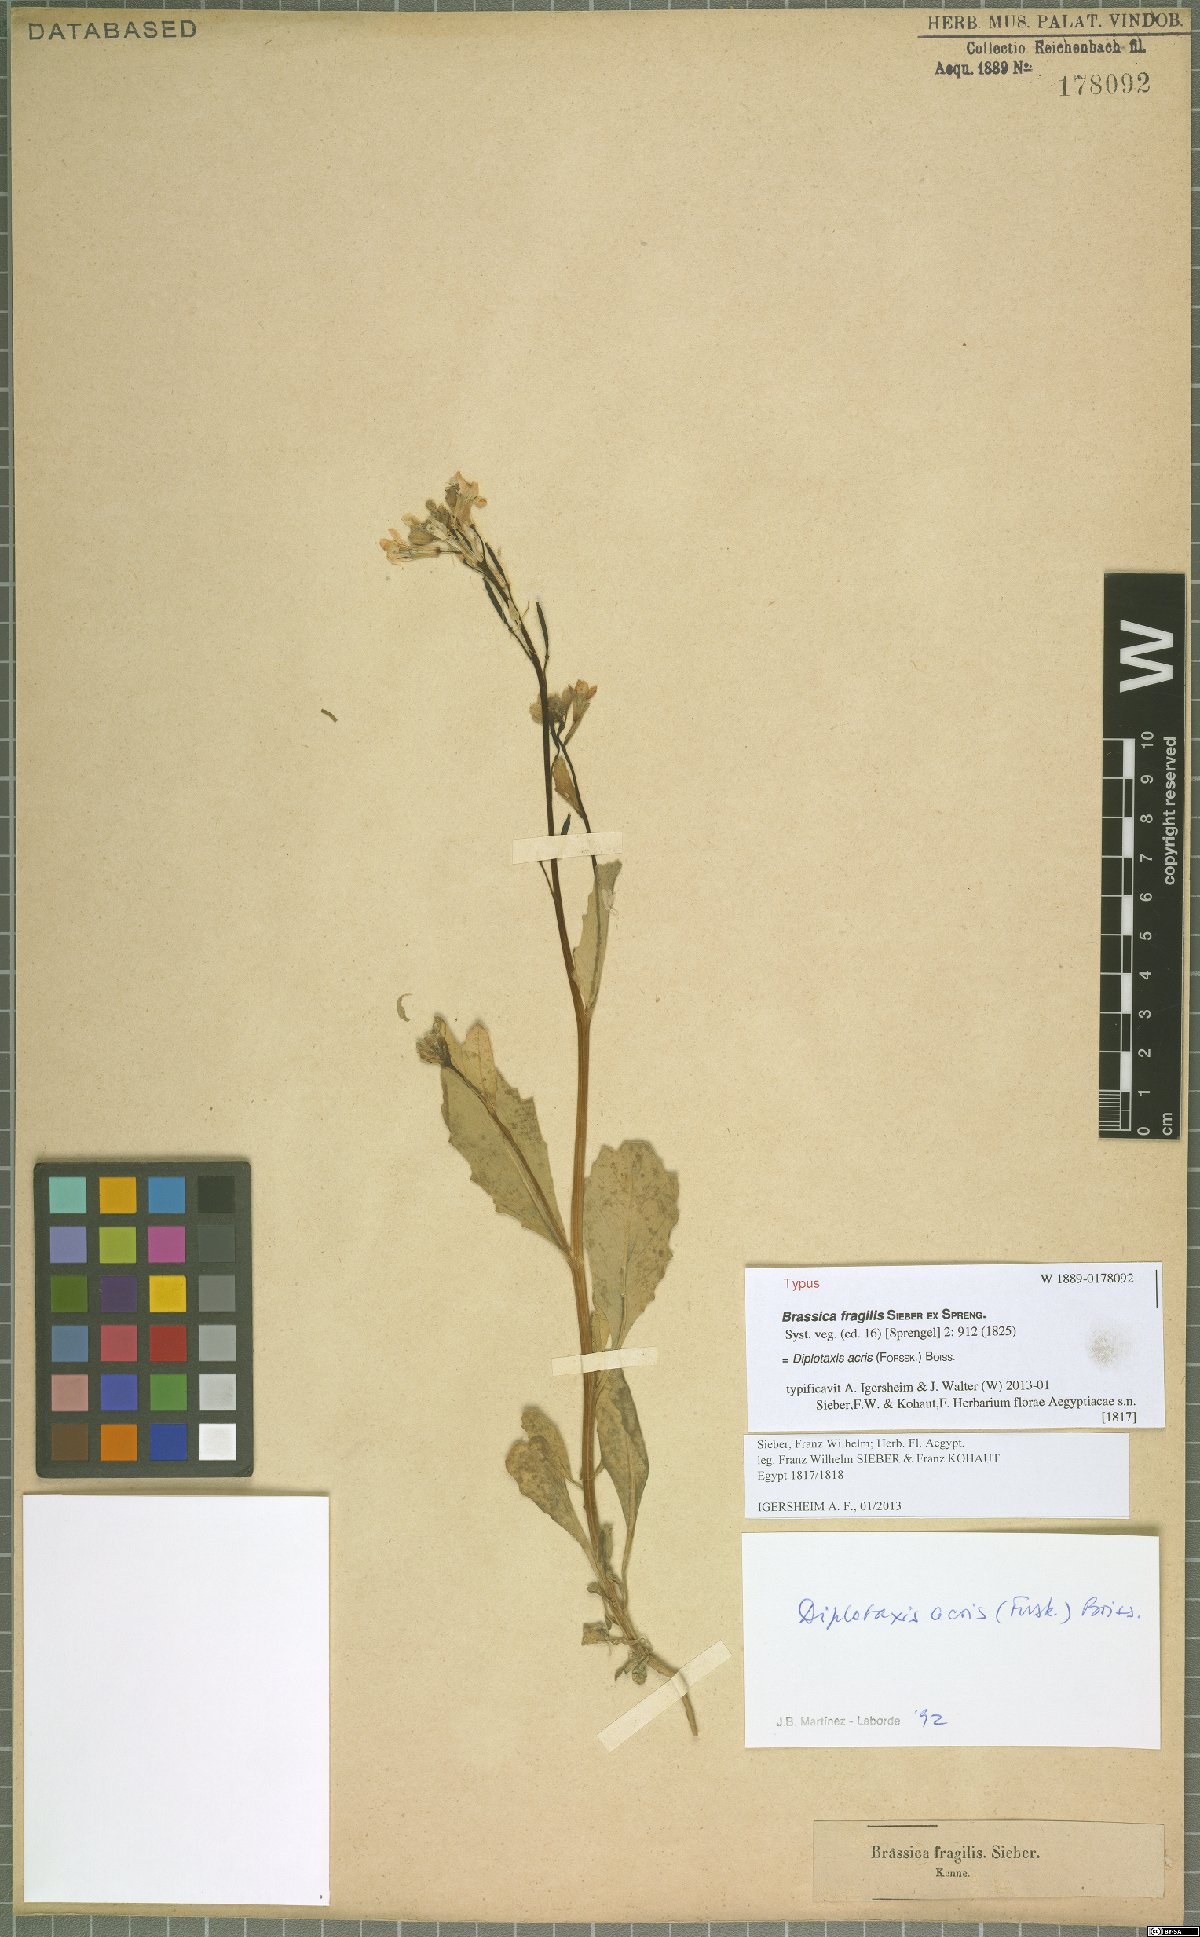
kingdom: Plantae
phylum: Tracheophyta
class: Magnoliopsida
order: Brassicales
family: Brassicaceae
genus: Diplotaxis
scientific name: Diplotaxis acris
